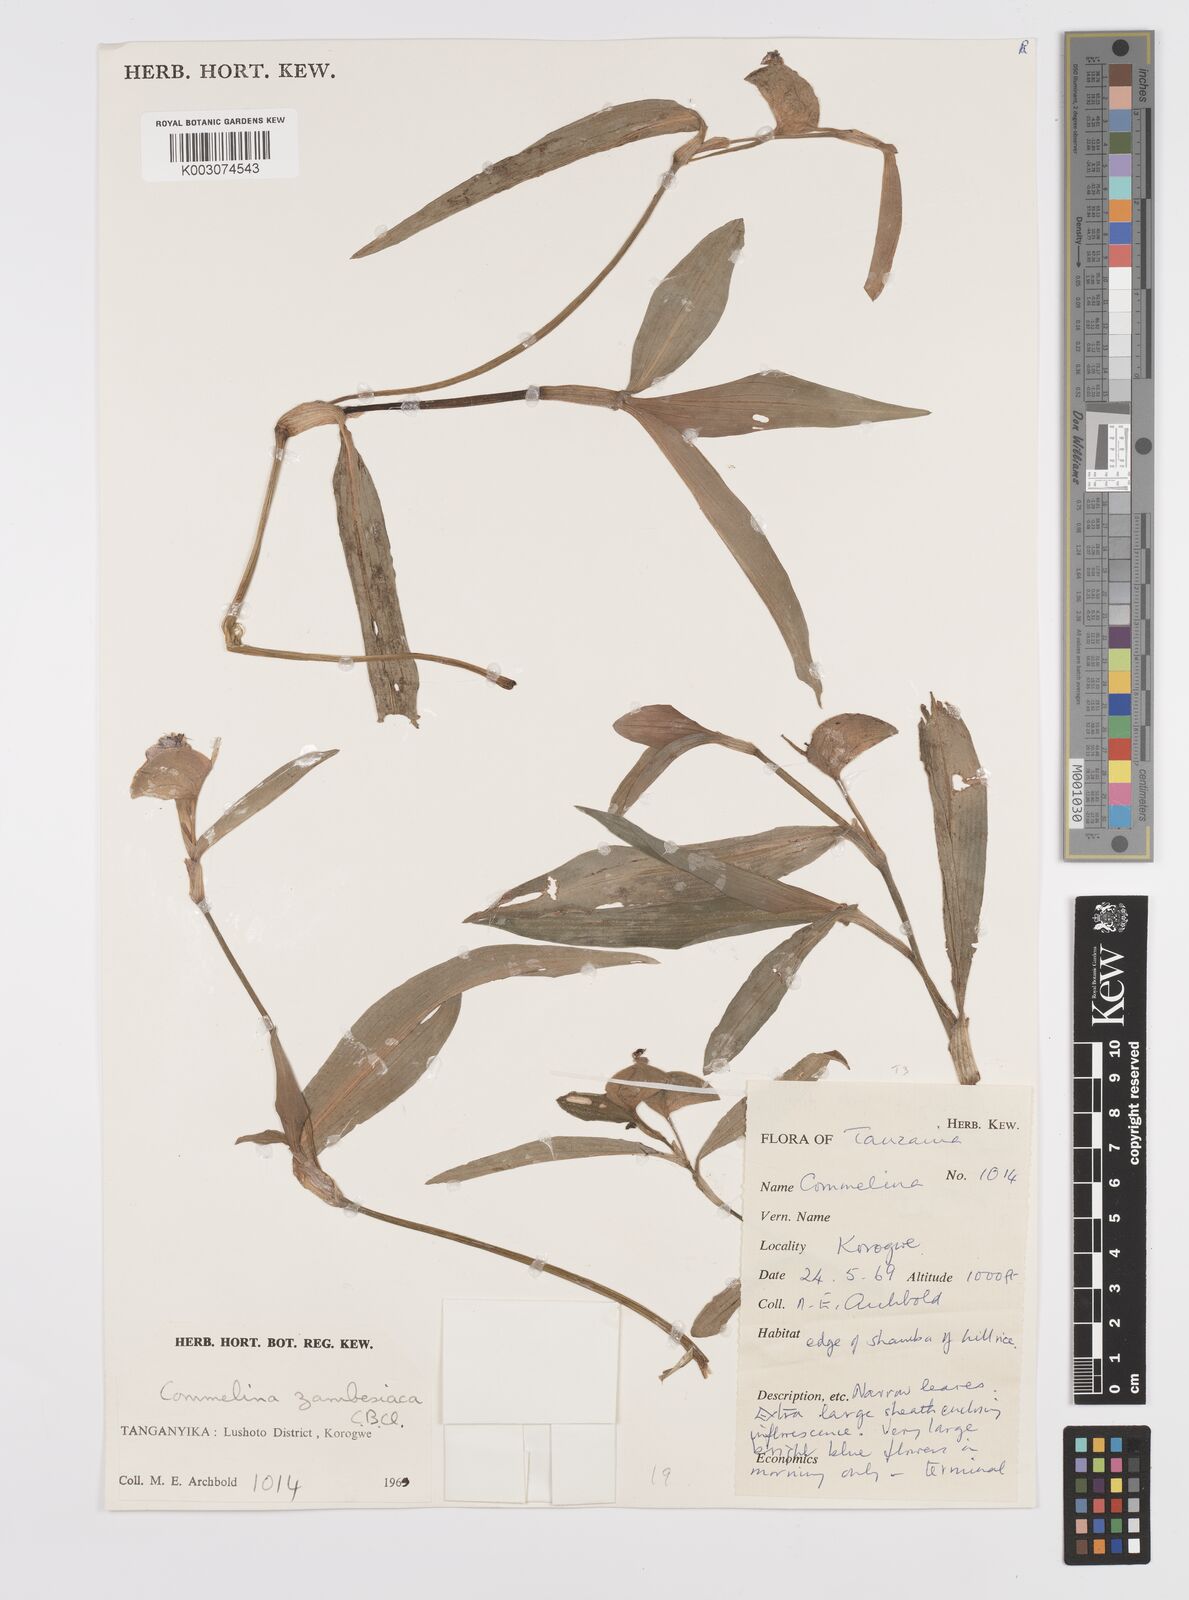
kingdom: Plantae
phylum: Tracheophyta
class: Liliopsida
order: Commelinales
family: Commelinaceae
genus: Commelina
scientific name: Commelina zambesica
